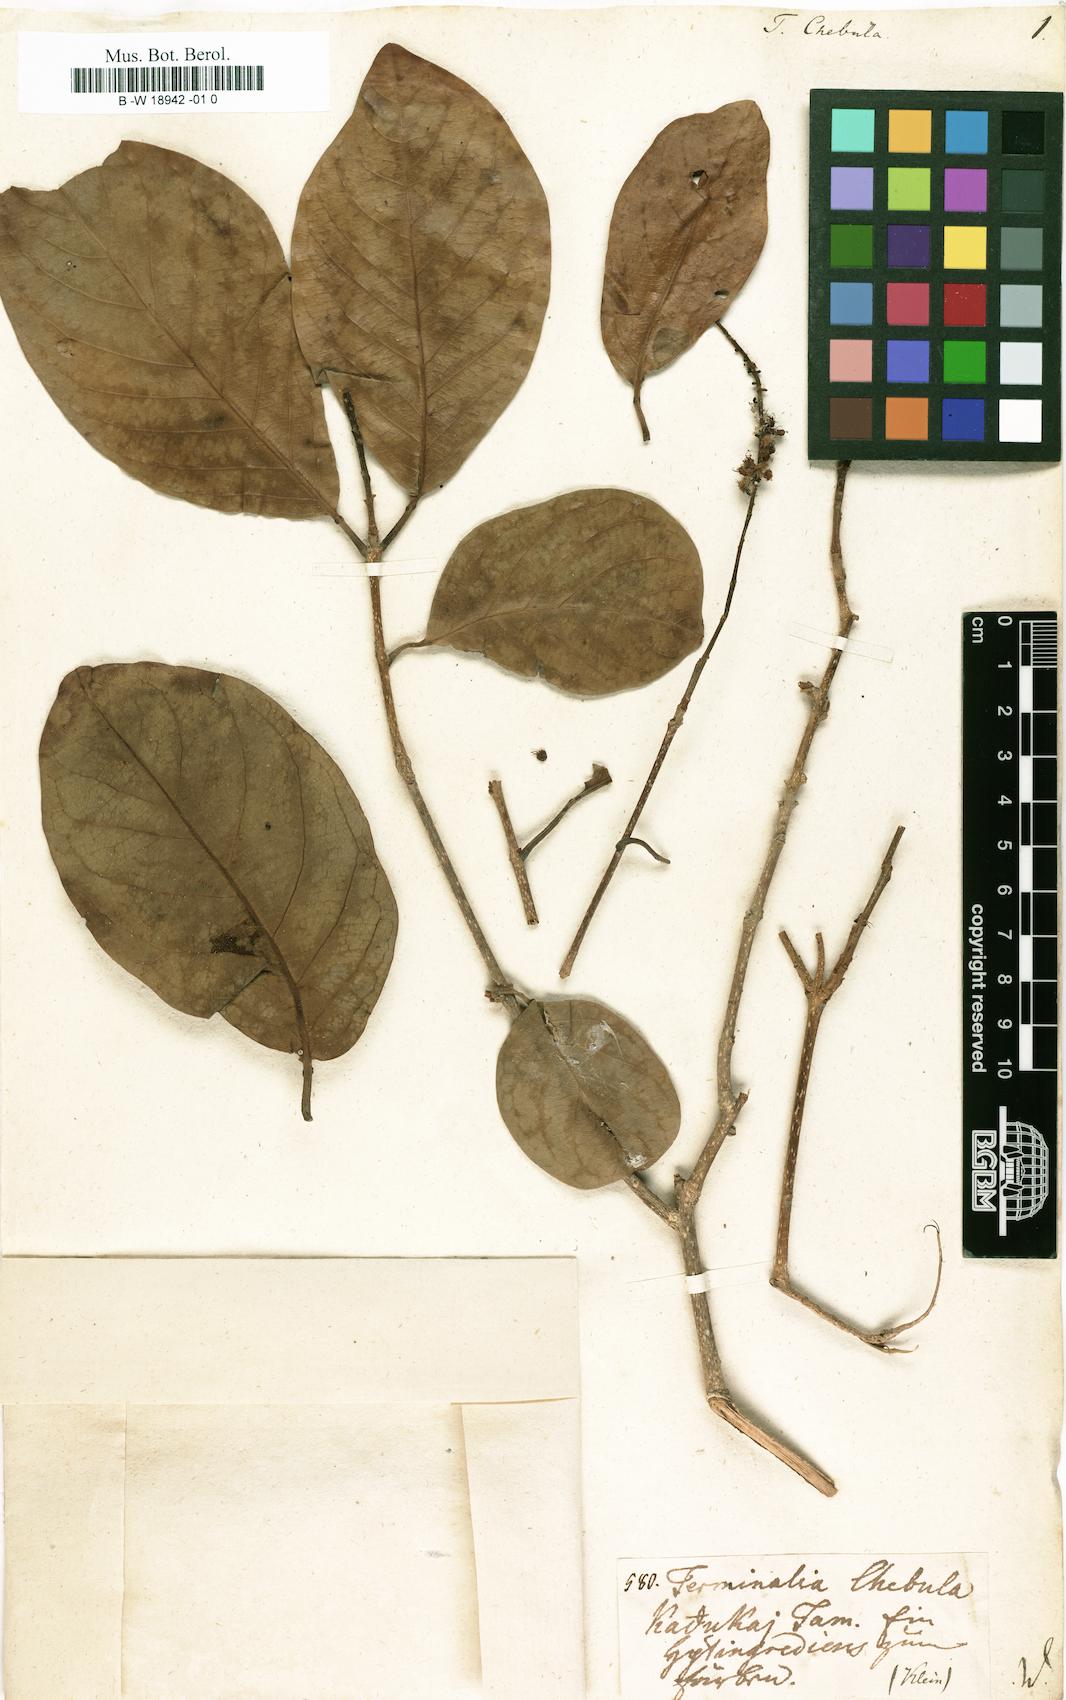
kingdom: Plantae
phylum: Tracheophyta
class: Magnoliopsida
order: Myrtales
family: Combretaceae
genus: Terminalia
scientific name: Terminalia chebula
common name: Myrobalan
